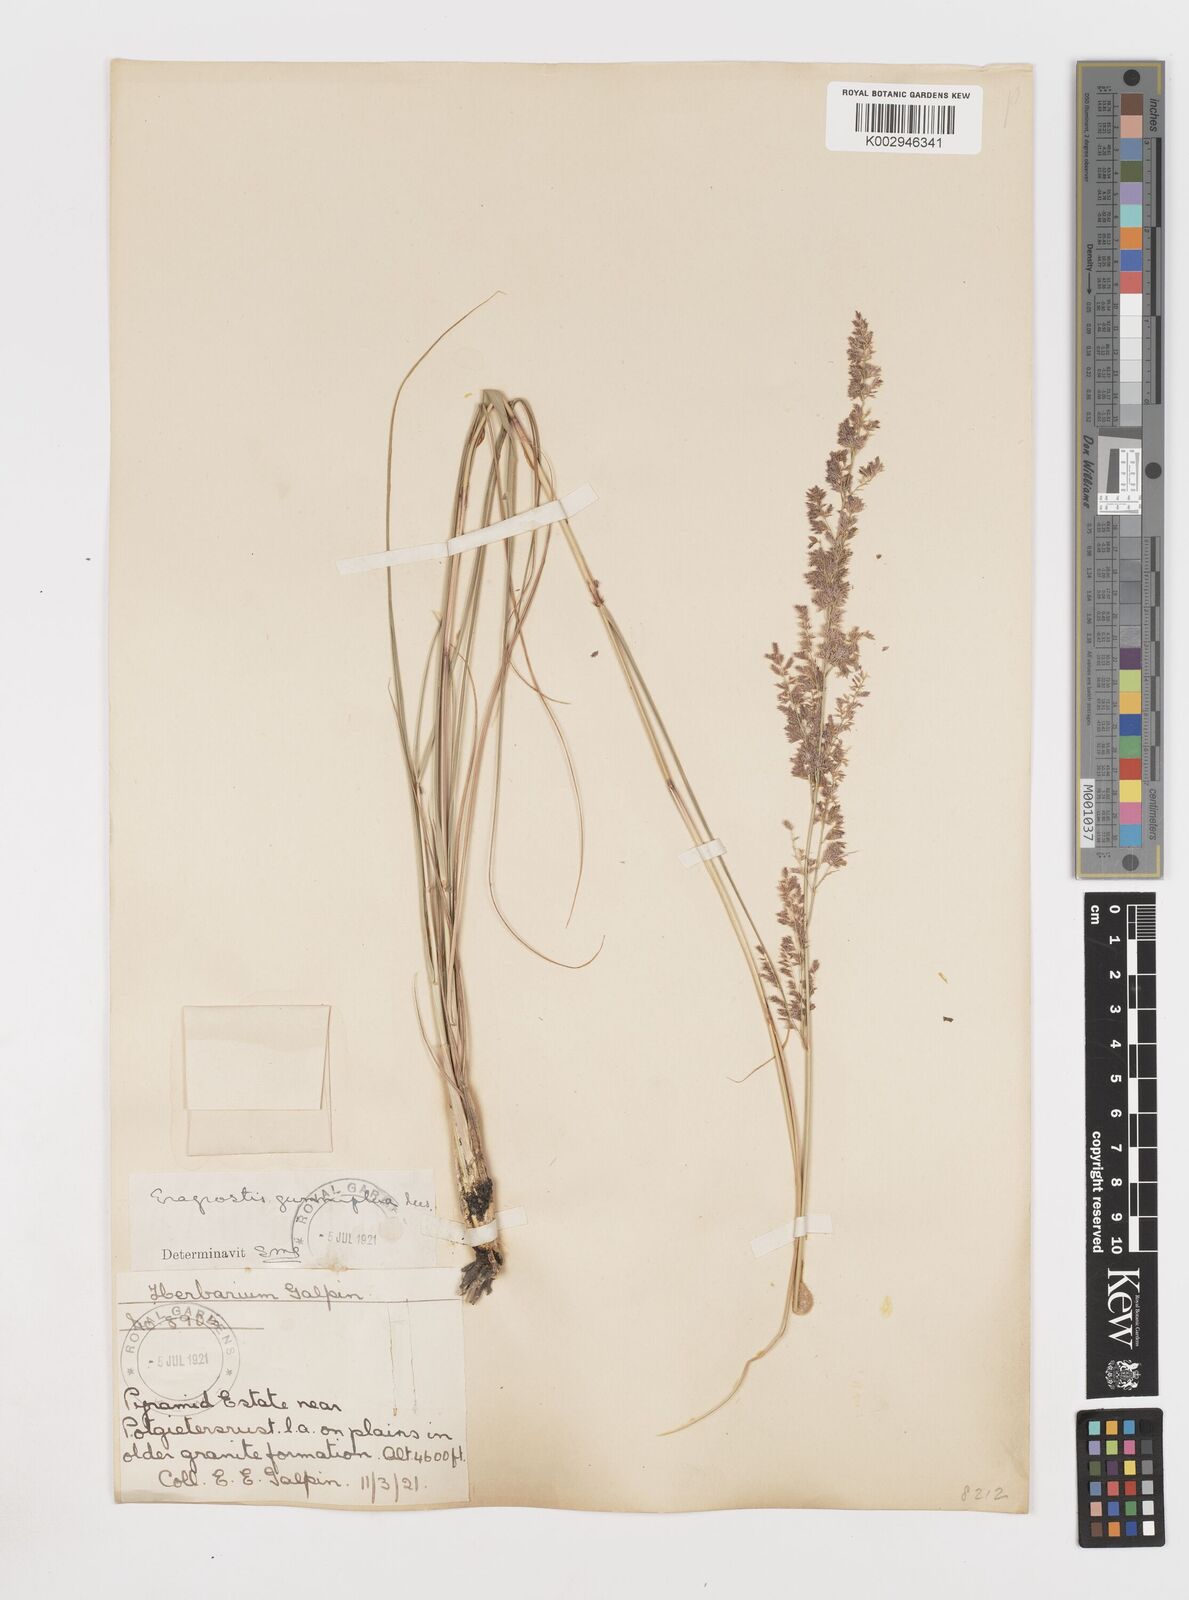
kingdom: Plantae
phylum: Tracheophyta
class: Liliopsida
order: Poales
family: Poaceae
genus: Eragrostis
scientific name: Eragrostis gummiflua
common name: Gum grass
